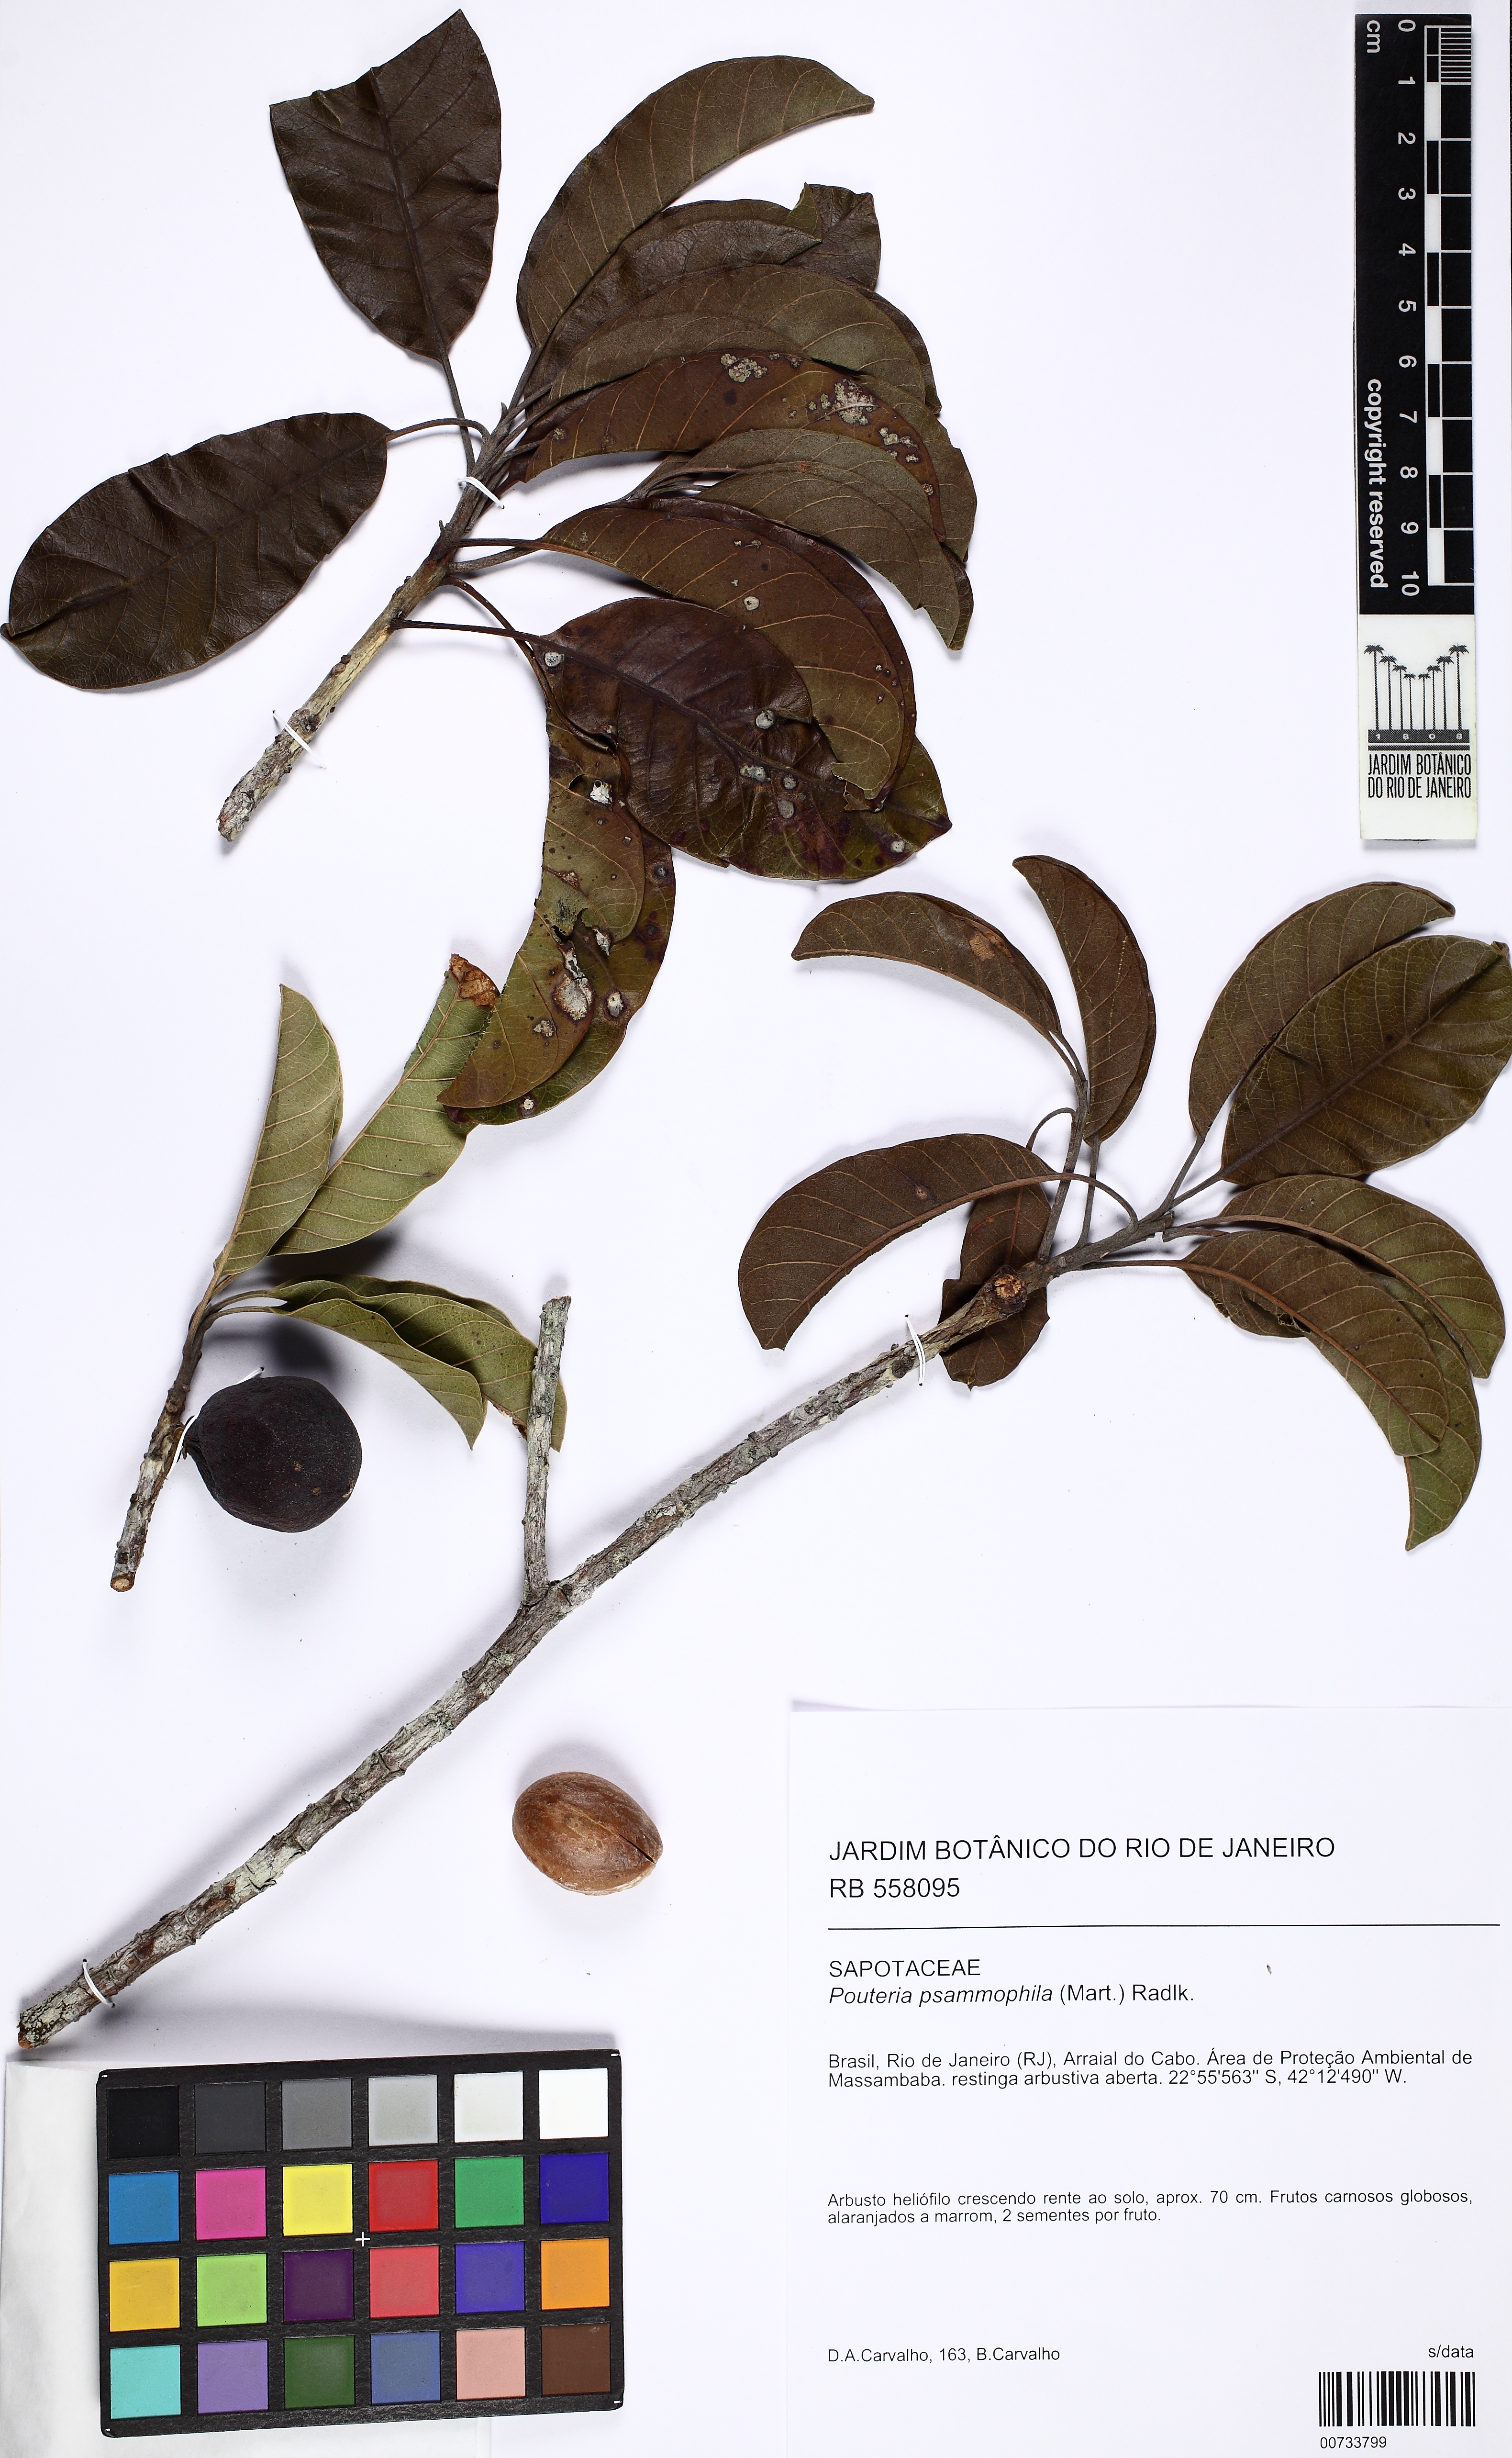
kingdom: Plantae
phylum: Tracheophyta
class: Magnoliopsida
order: Ericales
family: Sapotaceae
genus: Pouteria
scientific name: Pouteria psammophila
